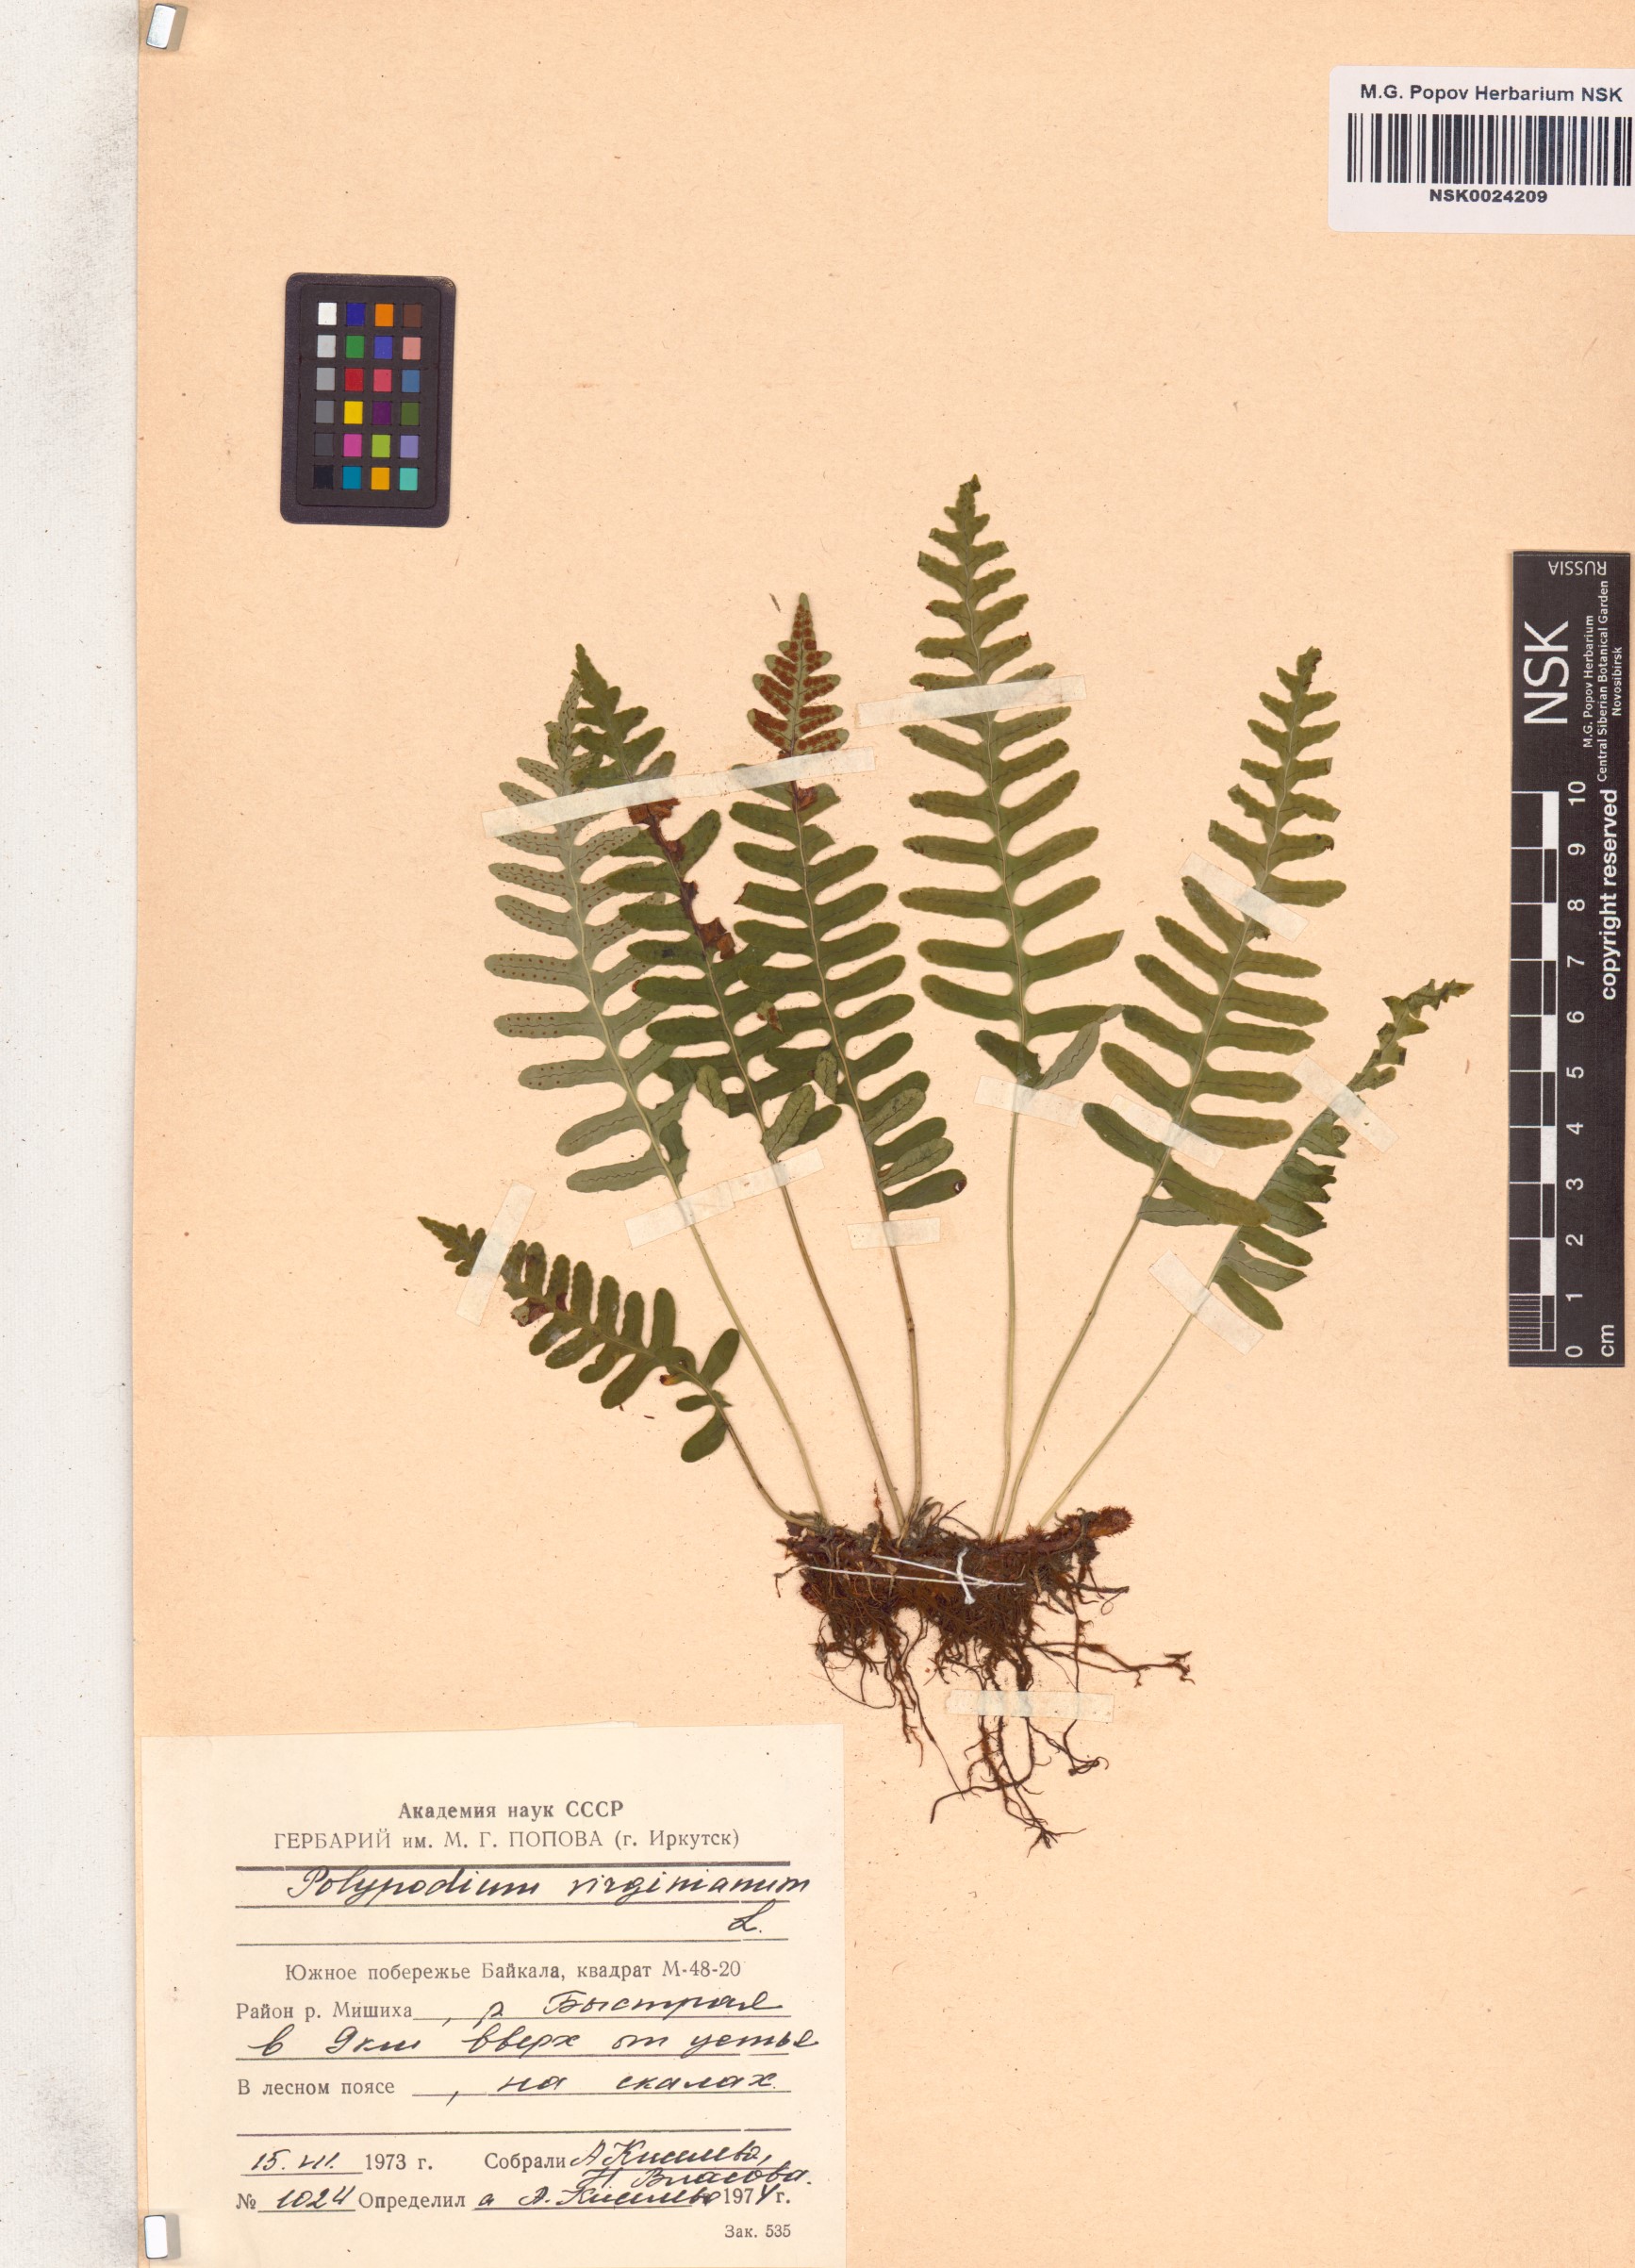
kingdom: Plantae
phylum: Tracheophyta
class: Polypodiopsida
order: Polypodiales
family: Polypodiaceae
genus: Polypodium
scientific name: Polypodium virginianum
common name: American wall fern
